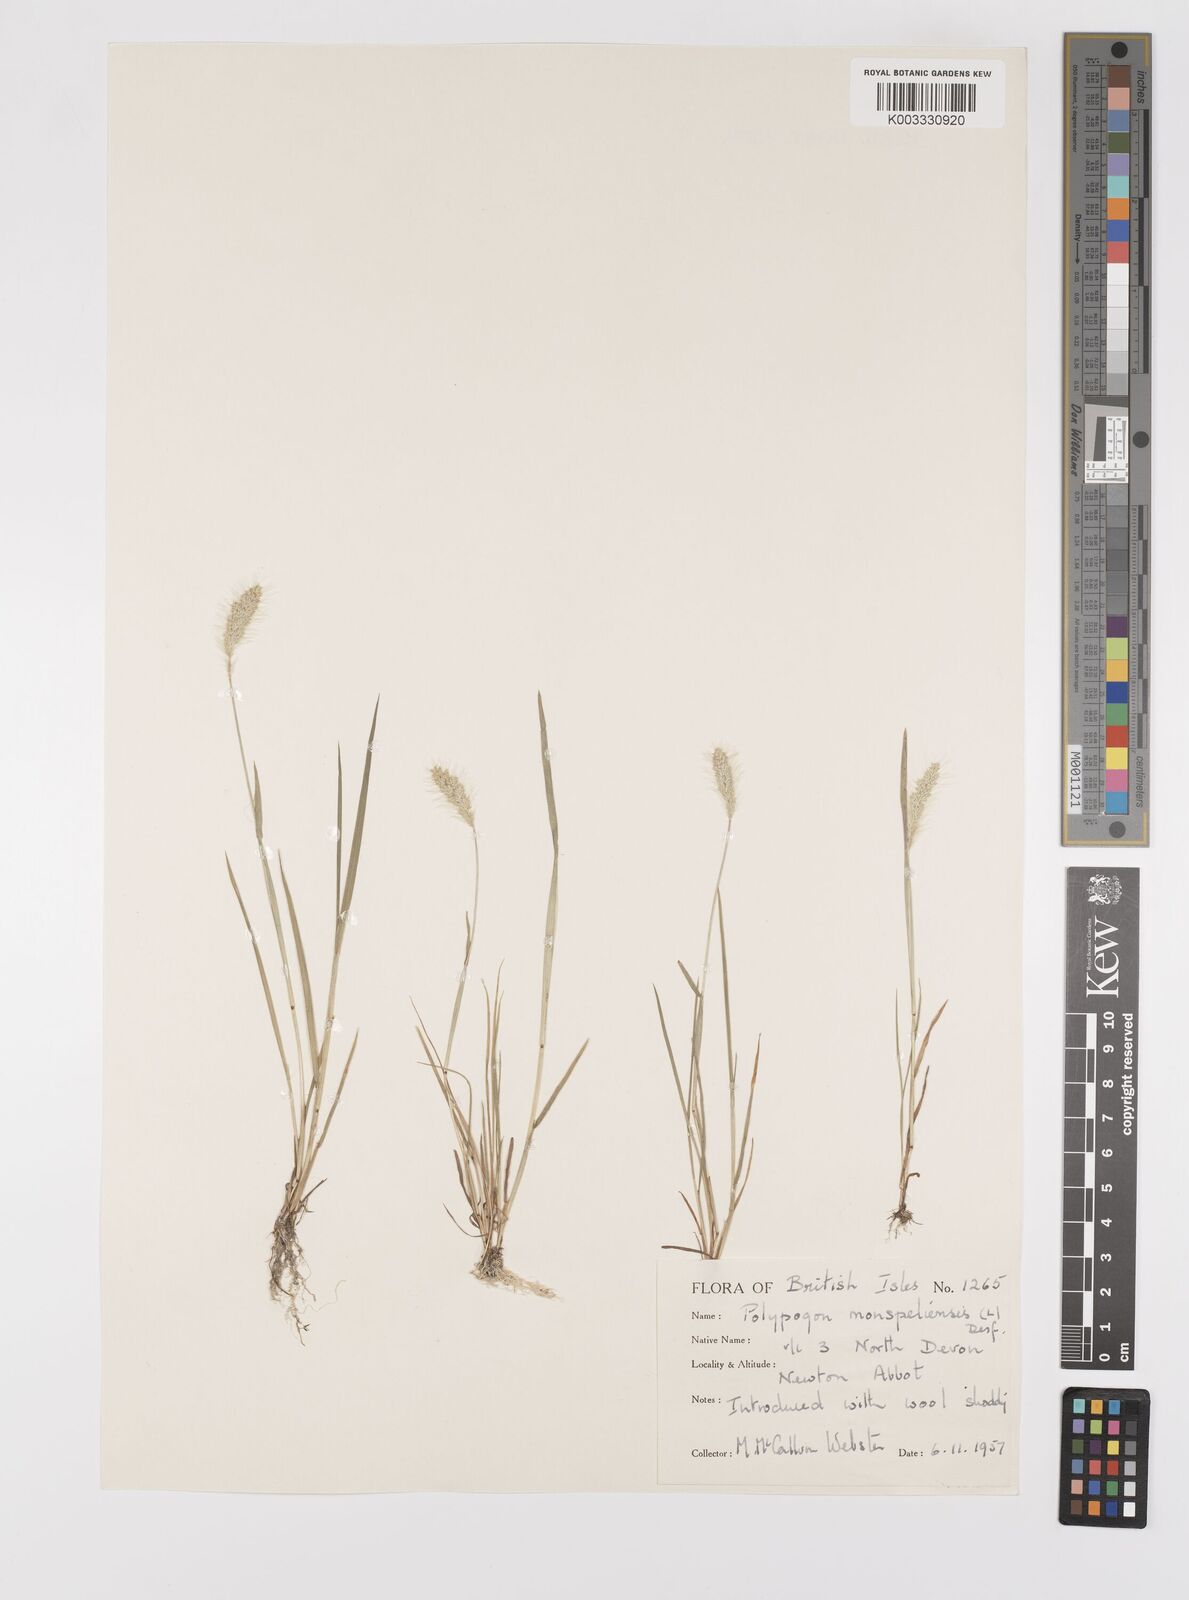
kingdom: Plantae
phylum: Tracheophyta
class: Liliopsida
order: Poales
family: Poaceae
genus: Polypogon
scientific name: Polypogon monspeliensis
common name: Annual rabbitsfoot grass
